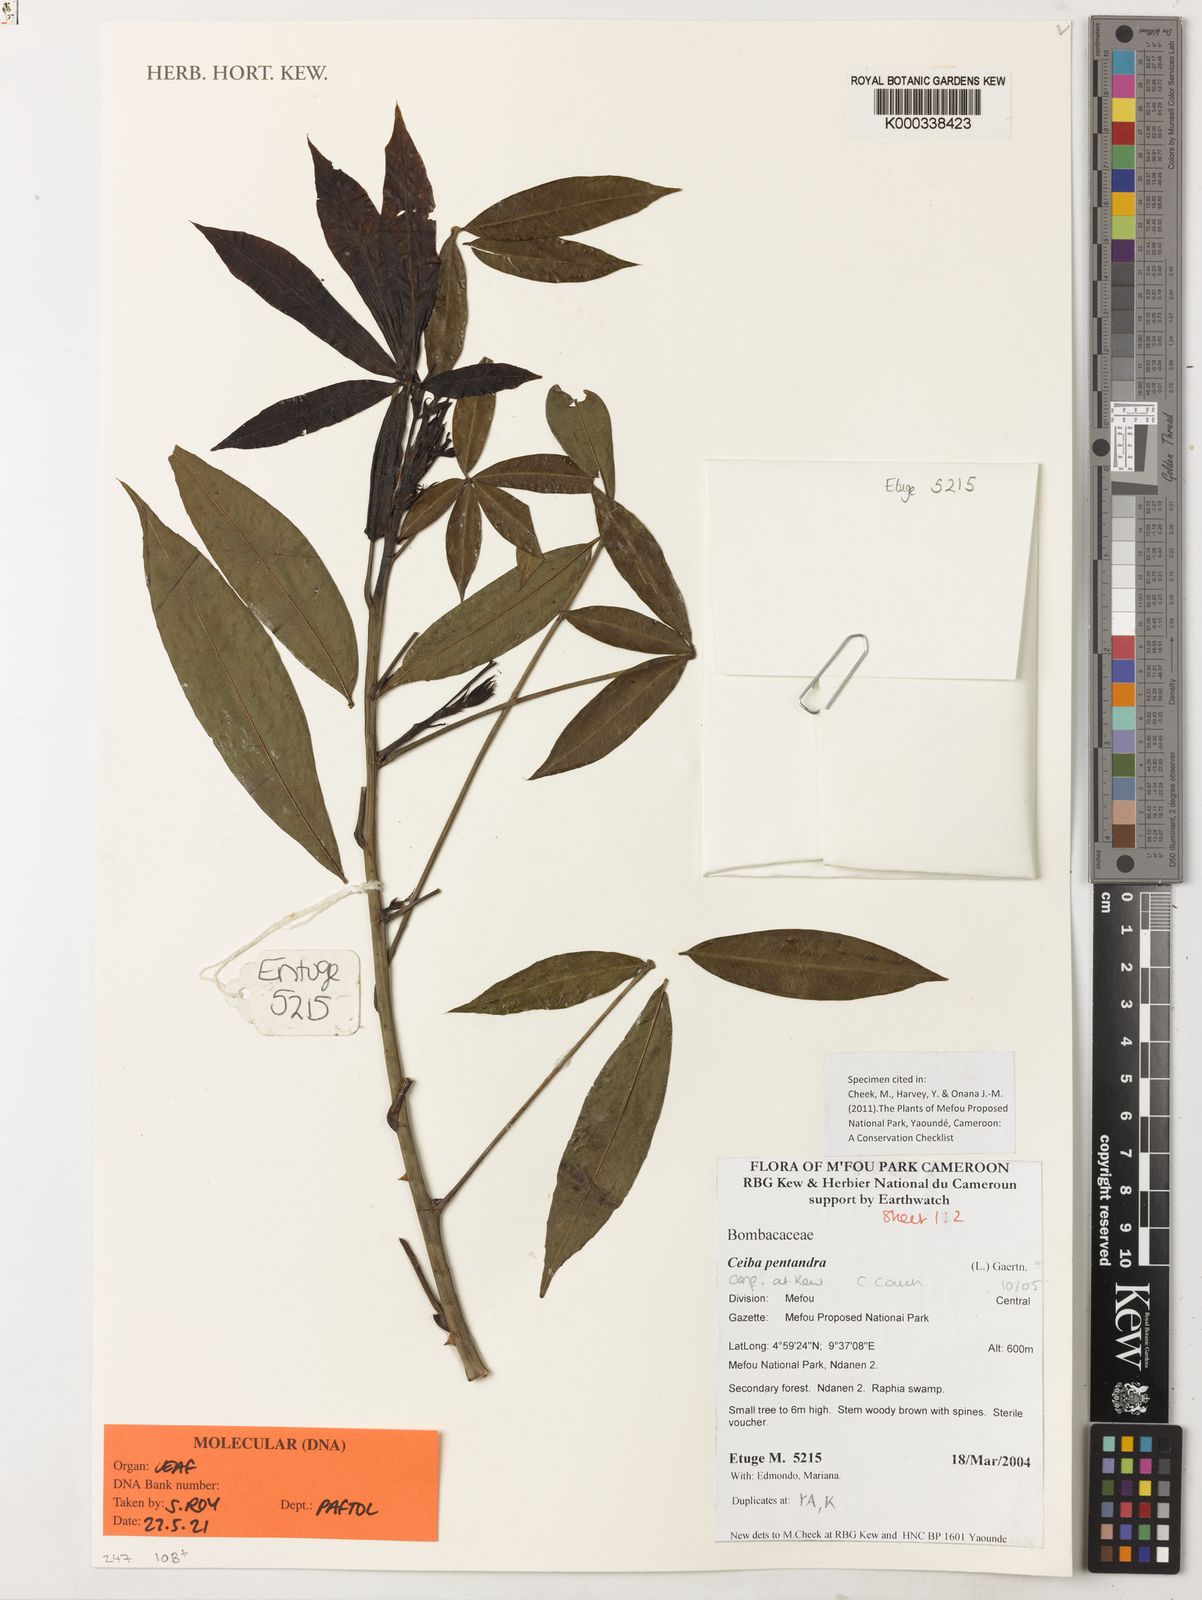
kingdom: Plantae
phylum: Tracheophyta
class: Magnoliopsida
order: Malvales
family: Malvaceae
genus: Ceiba
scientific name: Ceiba pentandra
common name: Kapok
